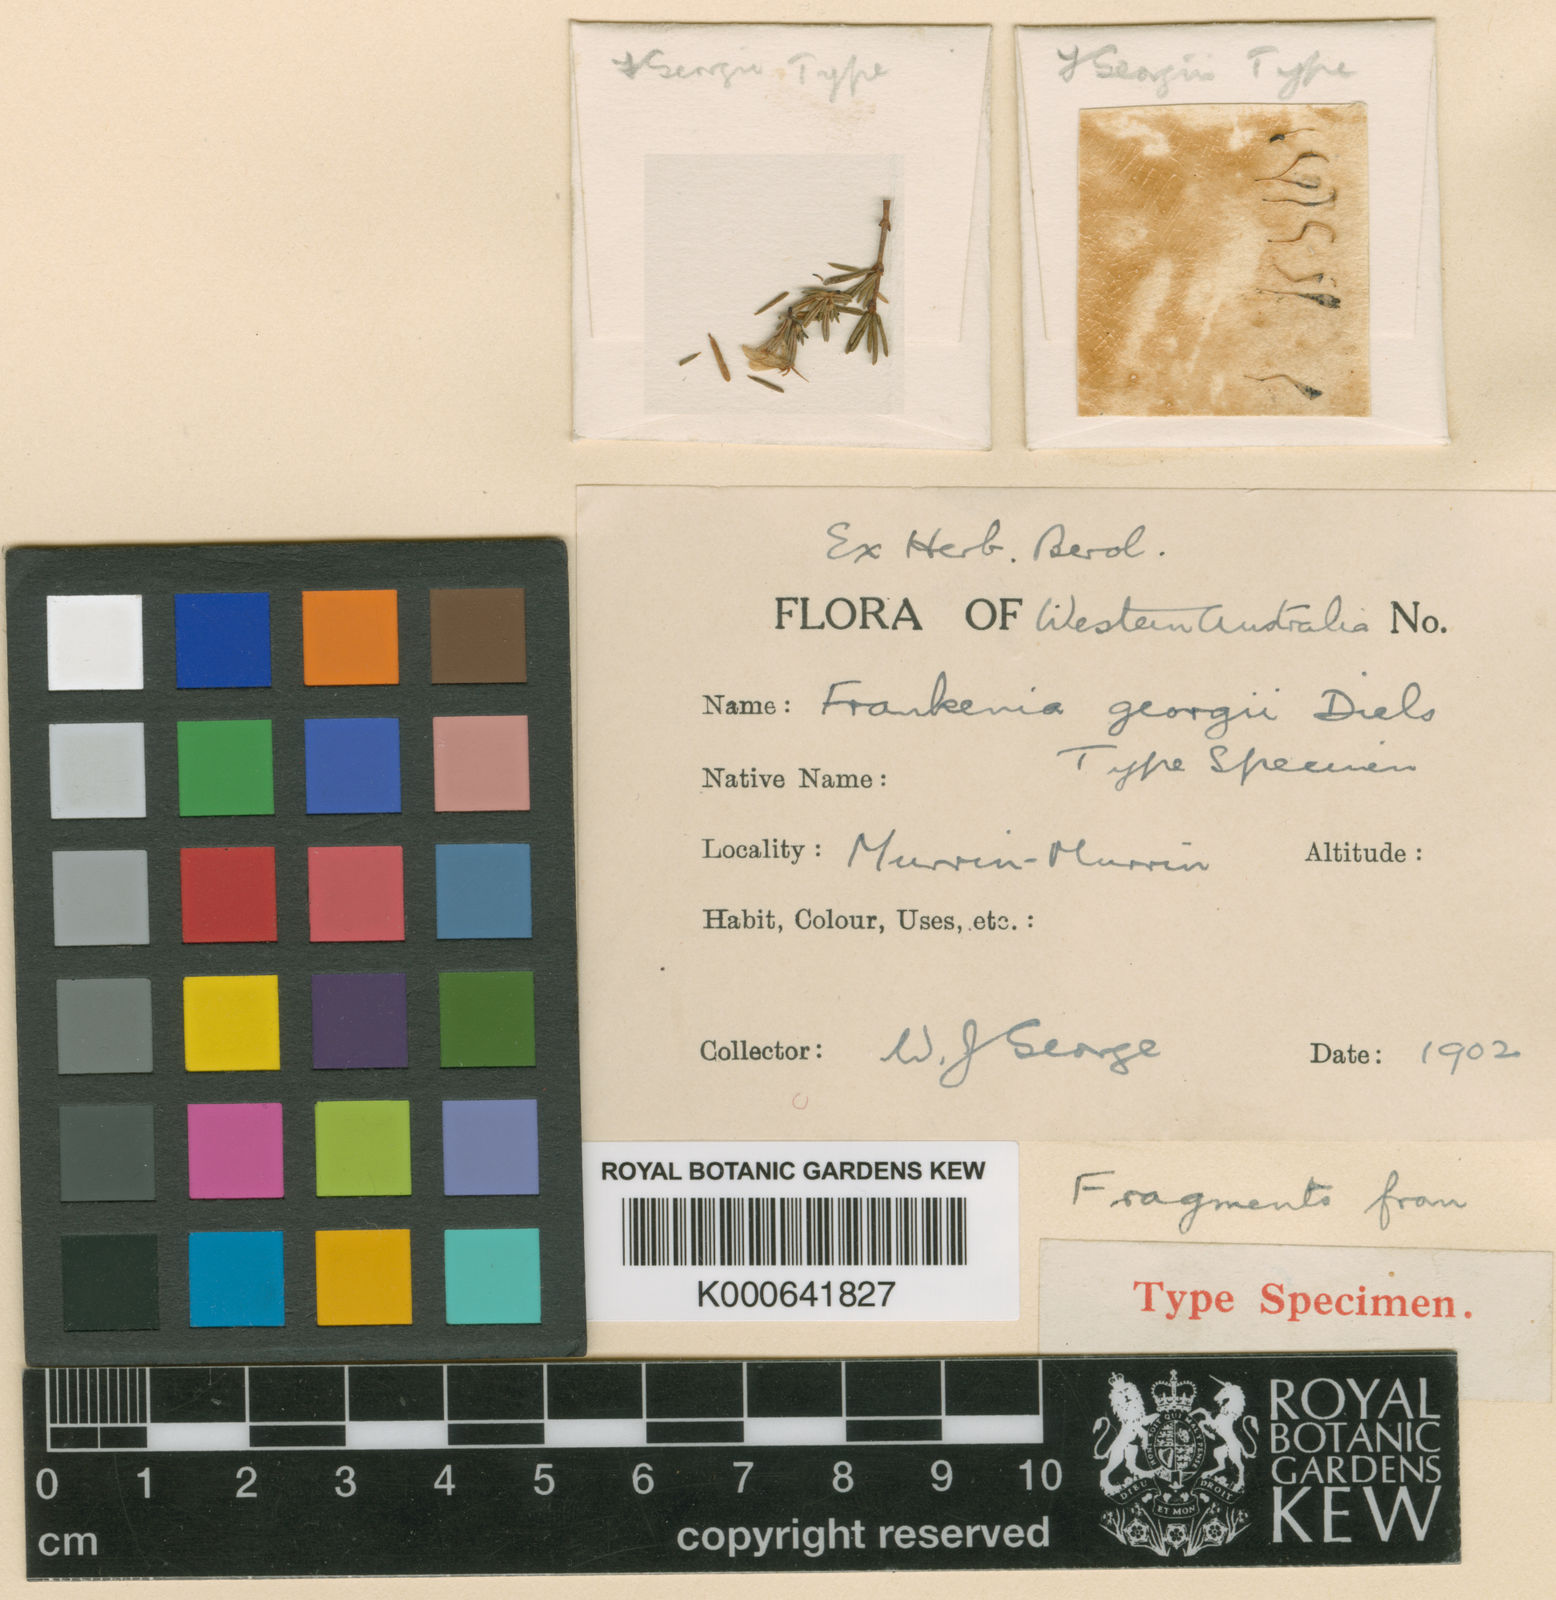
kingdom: Plantae
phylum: Tracheophyta
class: Magnoliopsida
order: Caryophyllales
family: Frankeniaceae
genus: Frankenia
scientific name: Frankenia georgei
